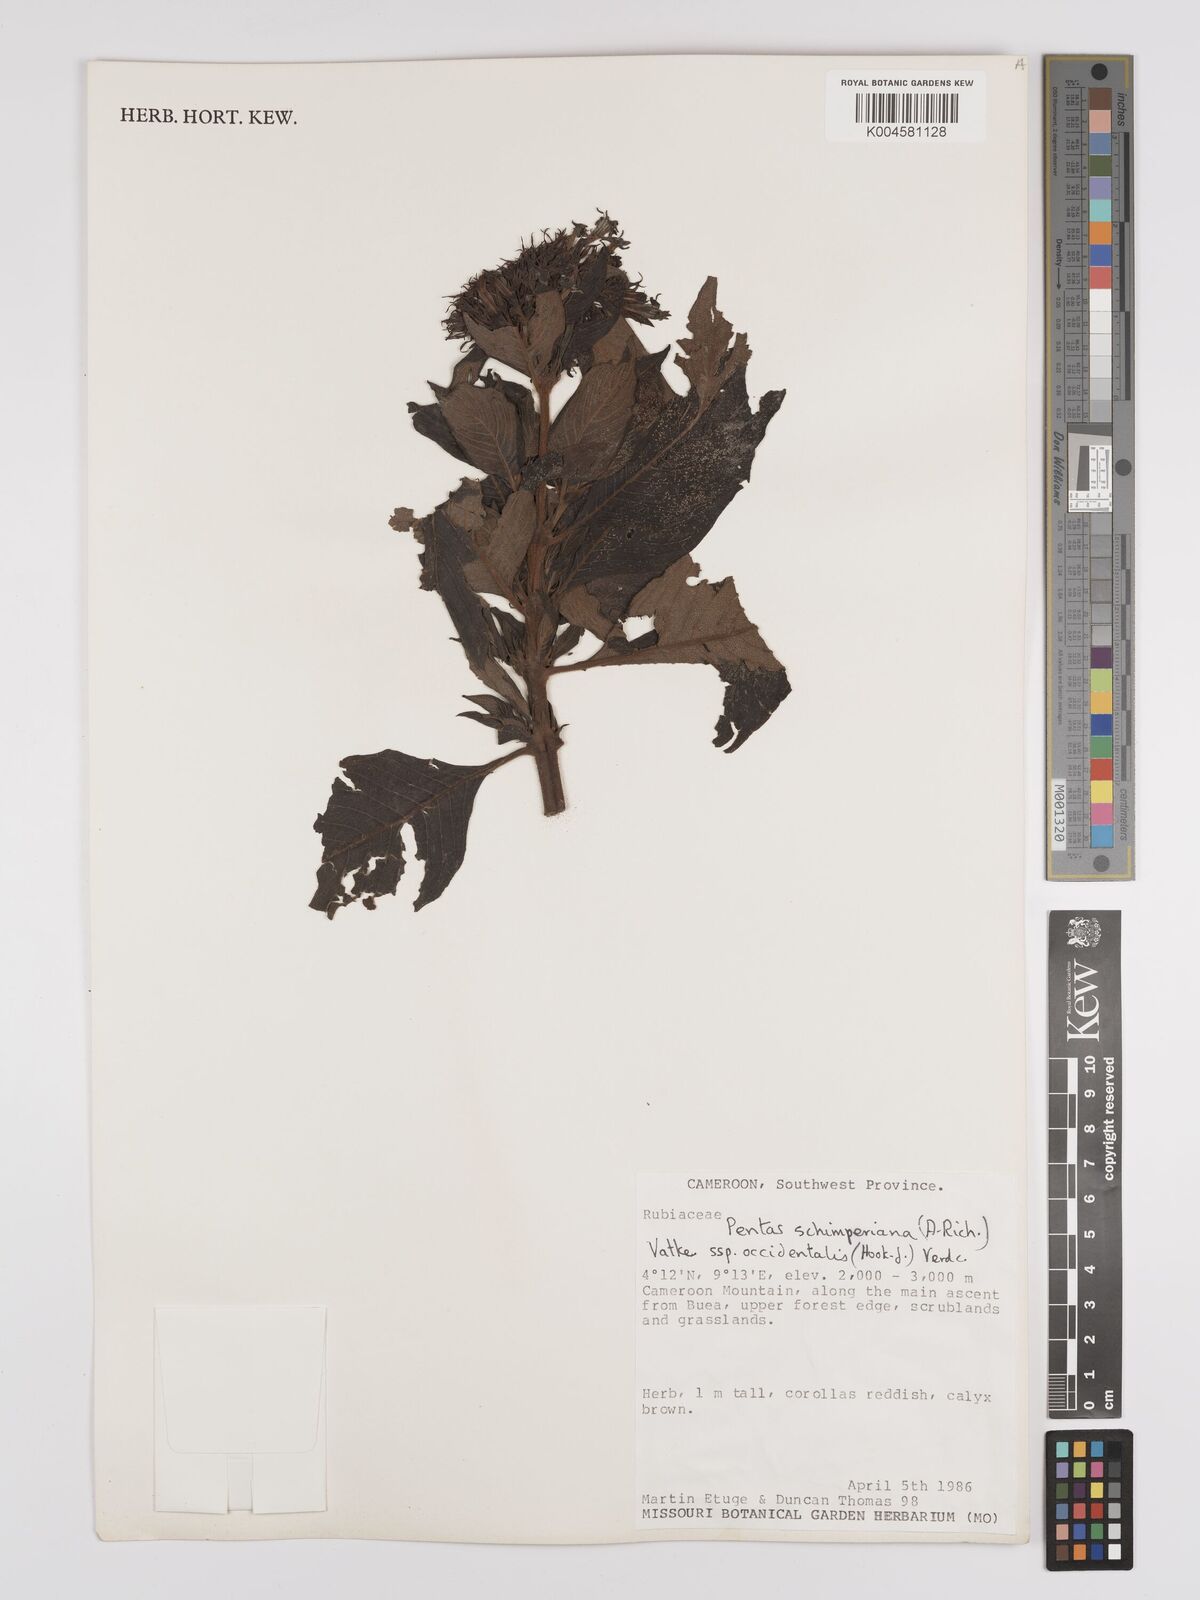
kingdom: Plantae
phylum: Tracheophyta
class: Magnoliopsida
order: Gentianales
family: Rubiaceae
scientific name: Rubiaceae
